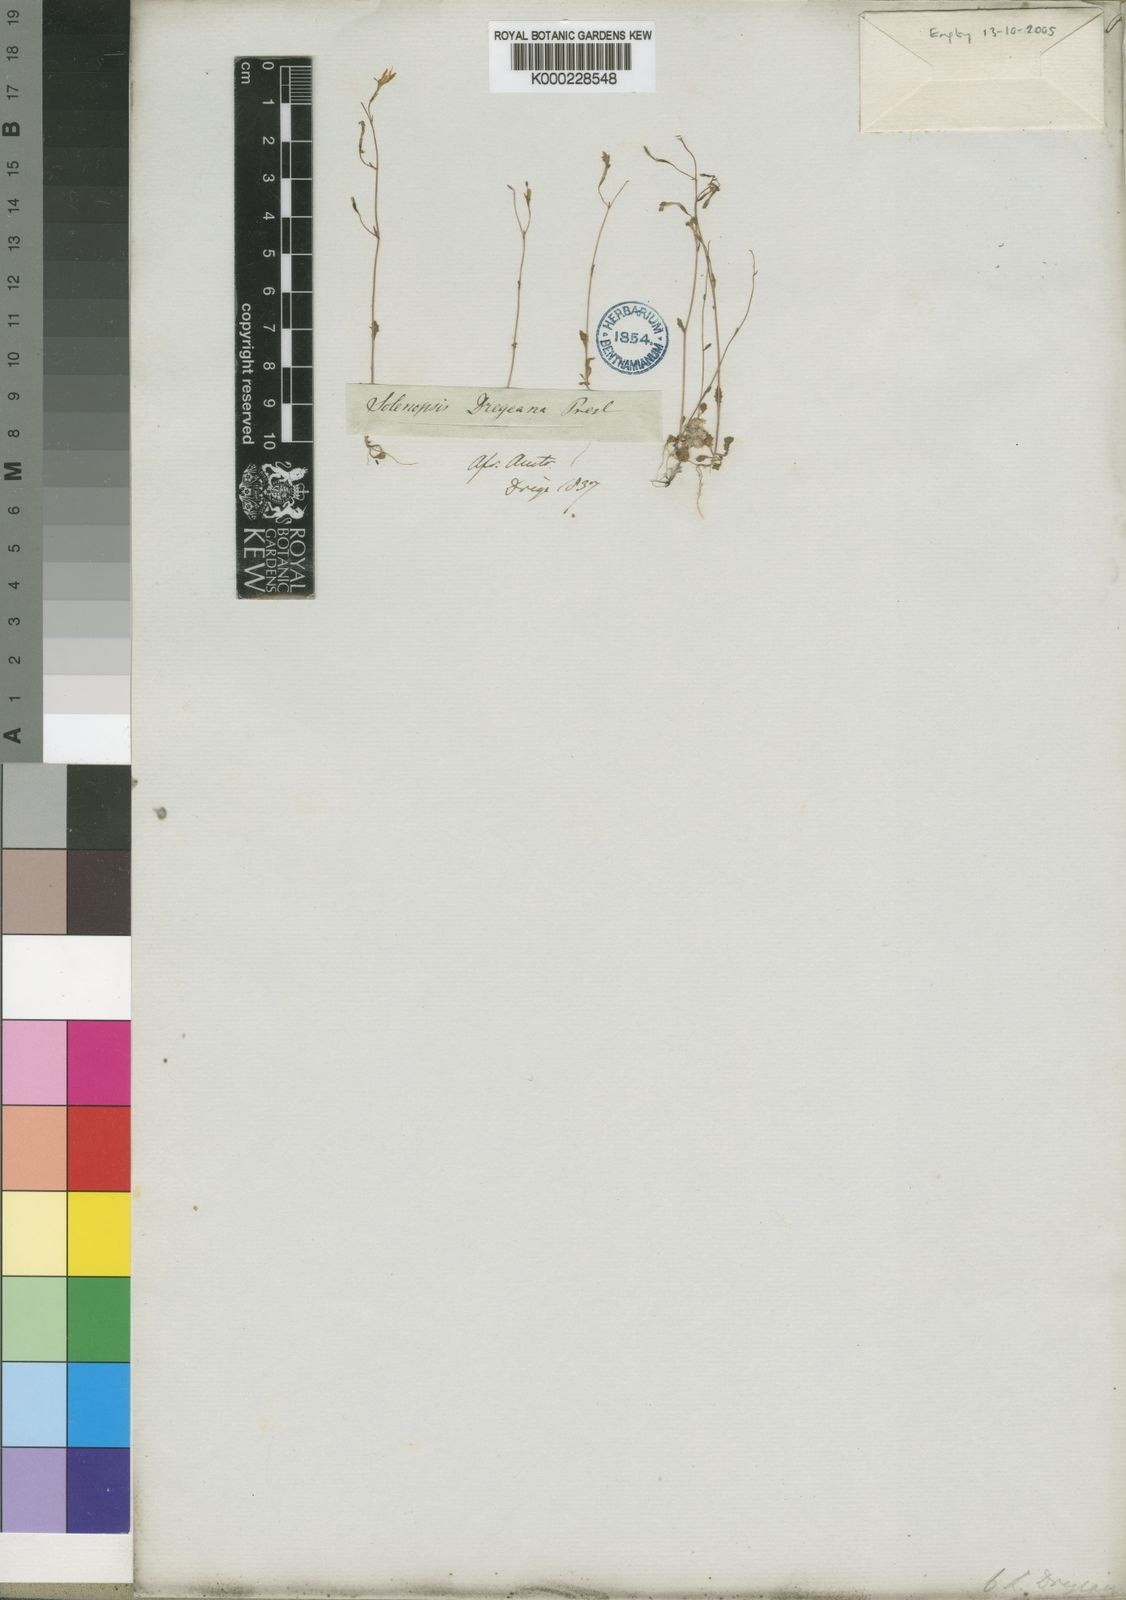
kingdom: Plantae
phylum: Tracheophyta
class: Magnoliopsida
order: Asterales
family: Campanulaceae
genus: Wimmerella
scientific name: Wimmerella
